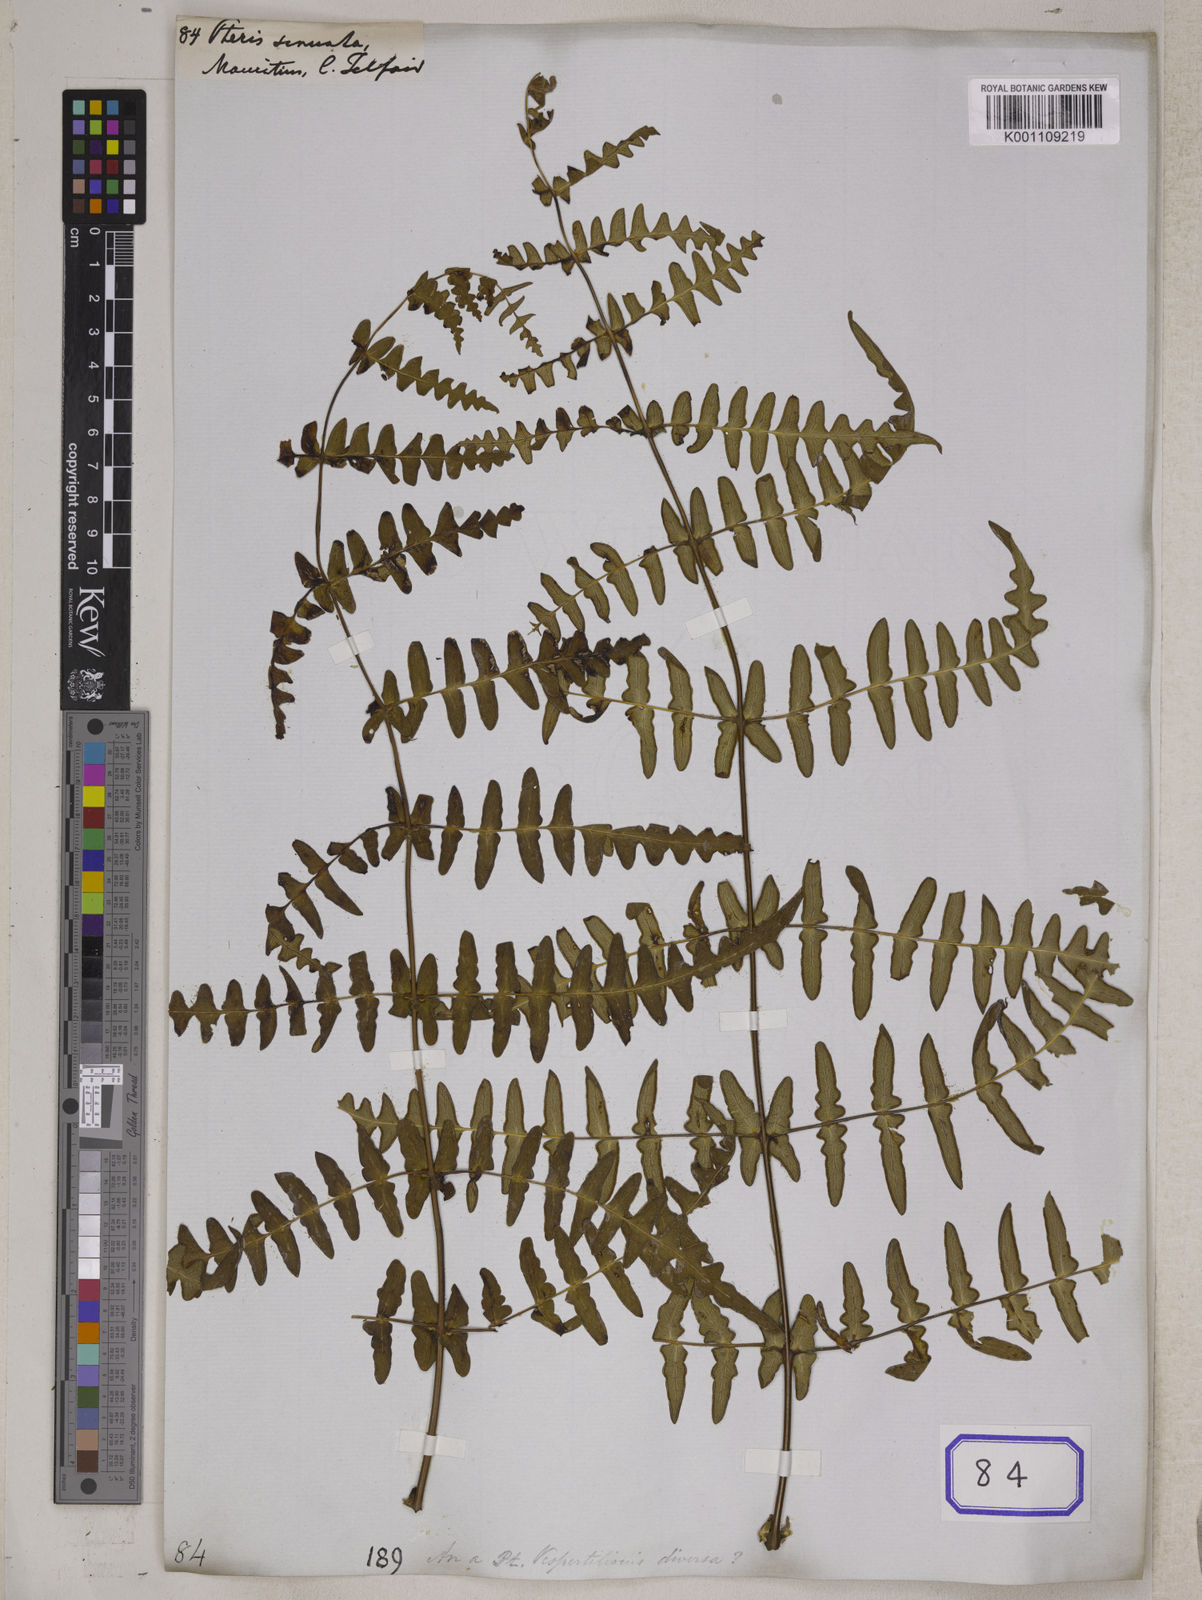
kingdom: Plantae
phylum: Tracheophyta
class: Polypodiopsida
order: Polypodiales
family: Pteridaceae
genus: Pteris
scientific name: Pteris
